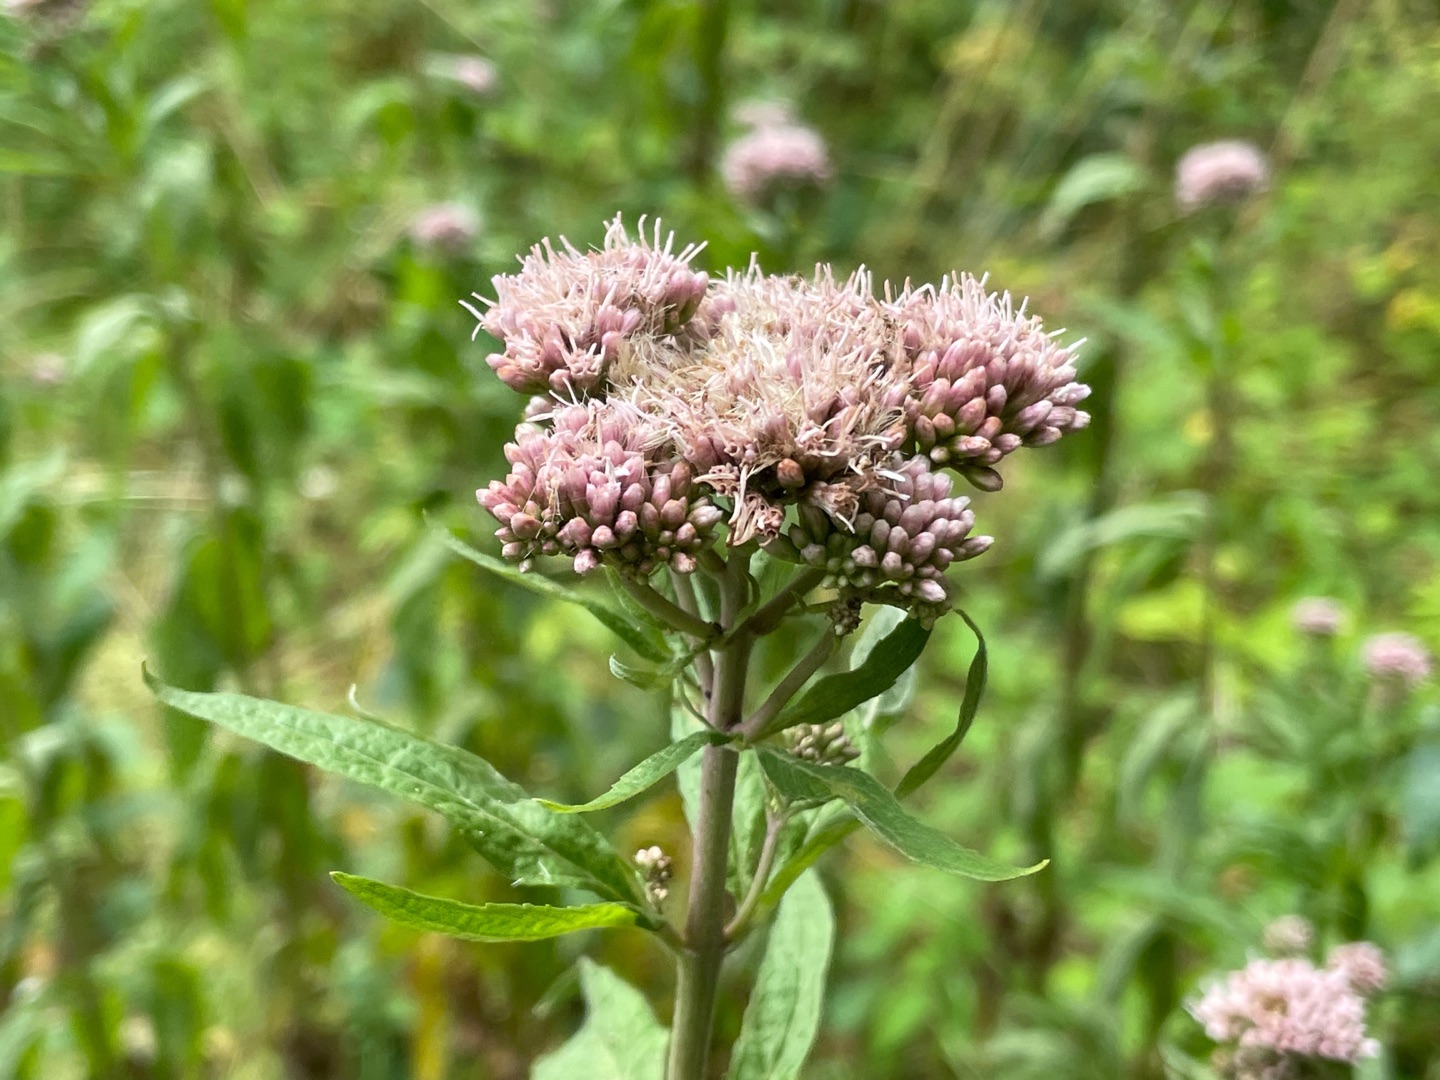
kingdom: Plantae
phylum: Tracheophyta
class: Magnoliopsida
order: Asterales
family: Asteraceae
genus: Eupatorium
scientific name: Eupatorium cannabinum
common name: Hjortetrøst
